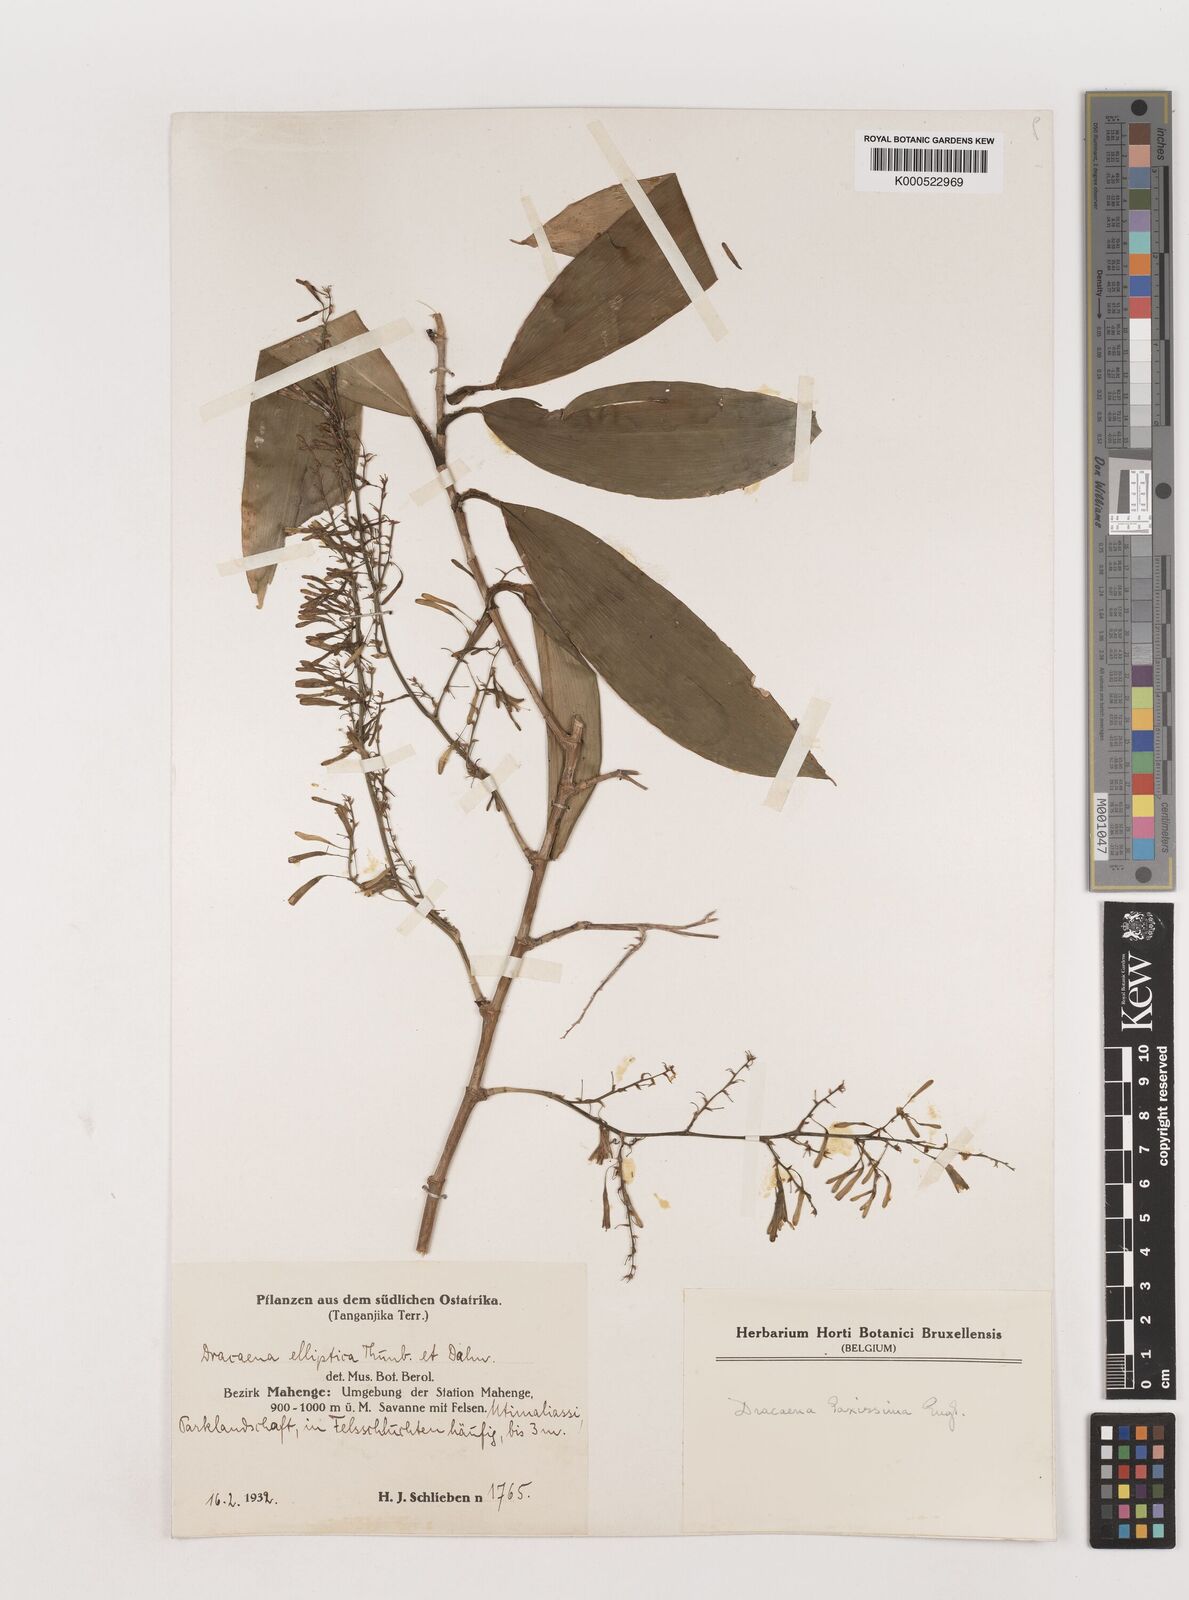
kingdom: Plantae
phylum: Tracheophyta
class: Liliopsida
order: Asparagales
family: Asparagaceae
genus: Dracaena
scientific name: Dracaena laxissima
